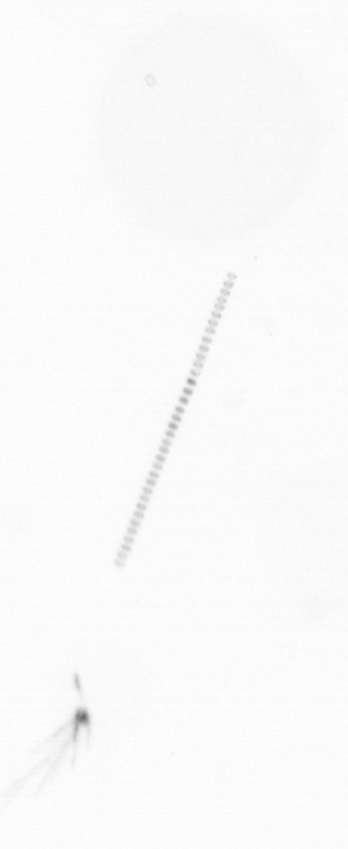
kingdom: Chromista
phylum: Ochrophyta
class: Bacillariophyceae
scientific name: Bacillariophyceae
